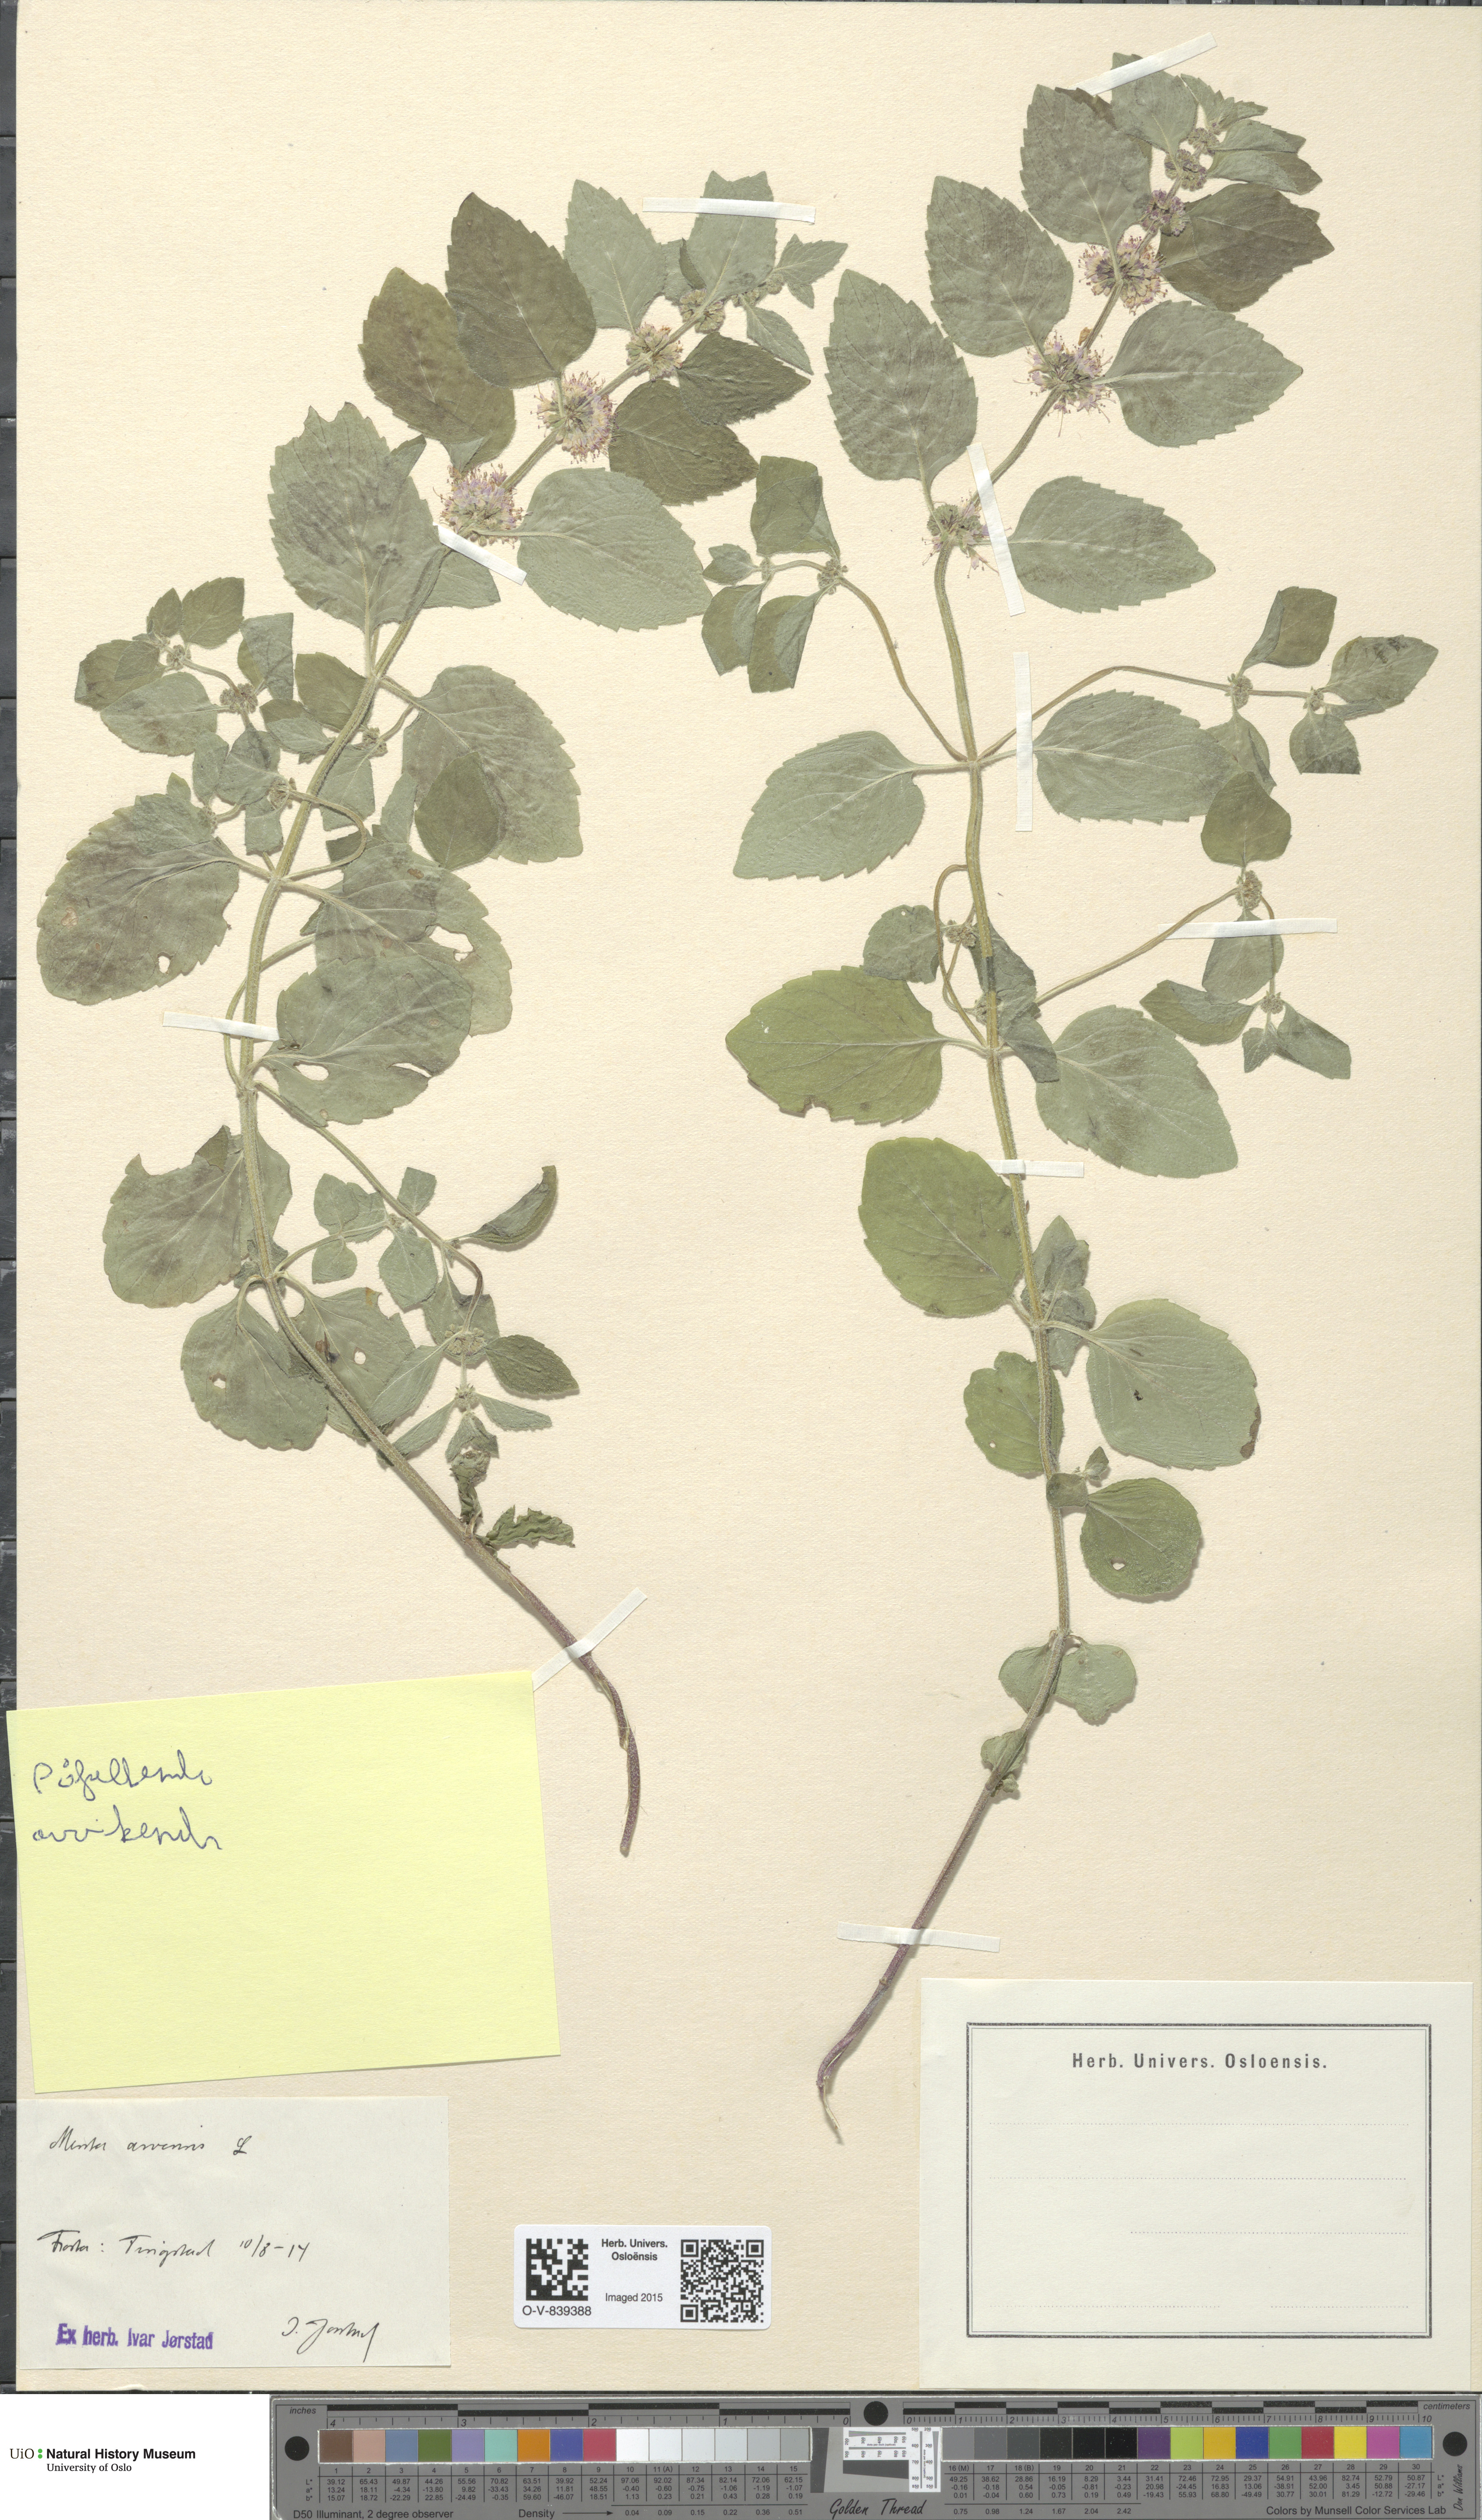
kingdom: Plantae
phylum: Tracheophyta
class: Magnoliopsida
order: Lamiales
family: Lamiaceae
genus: Mentha
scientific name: Mentha arvensis
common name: Corn mint
